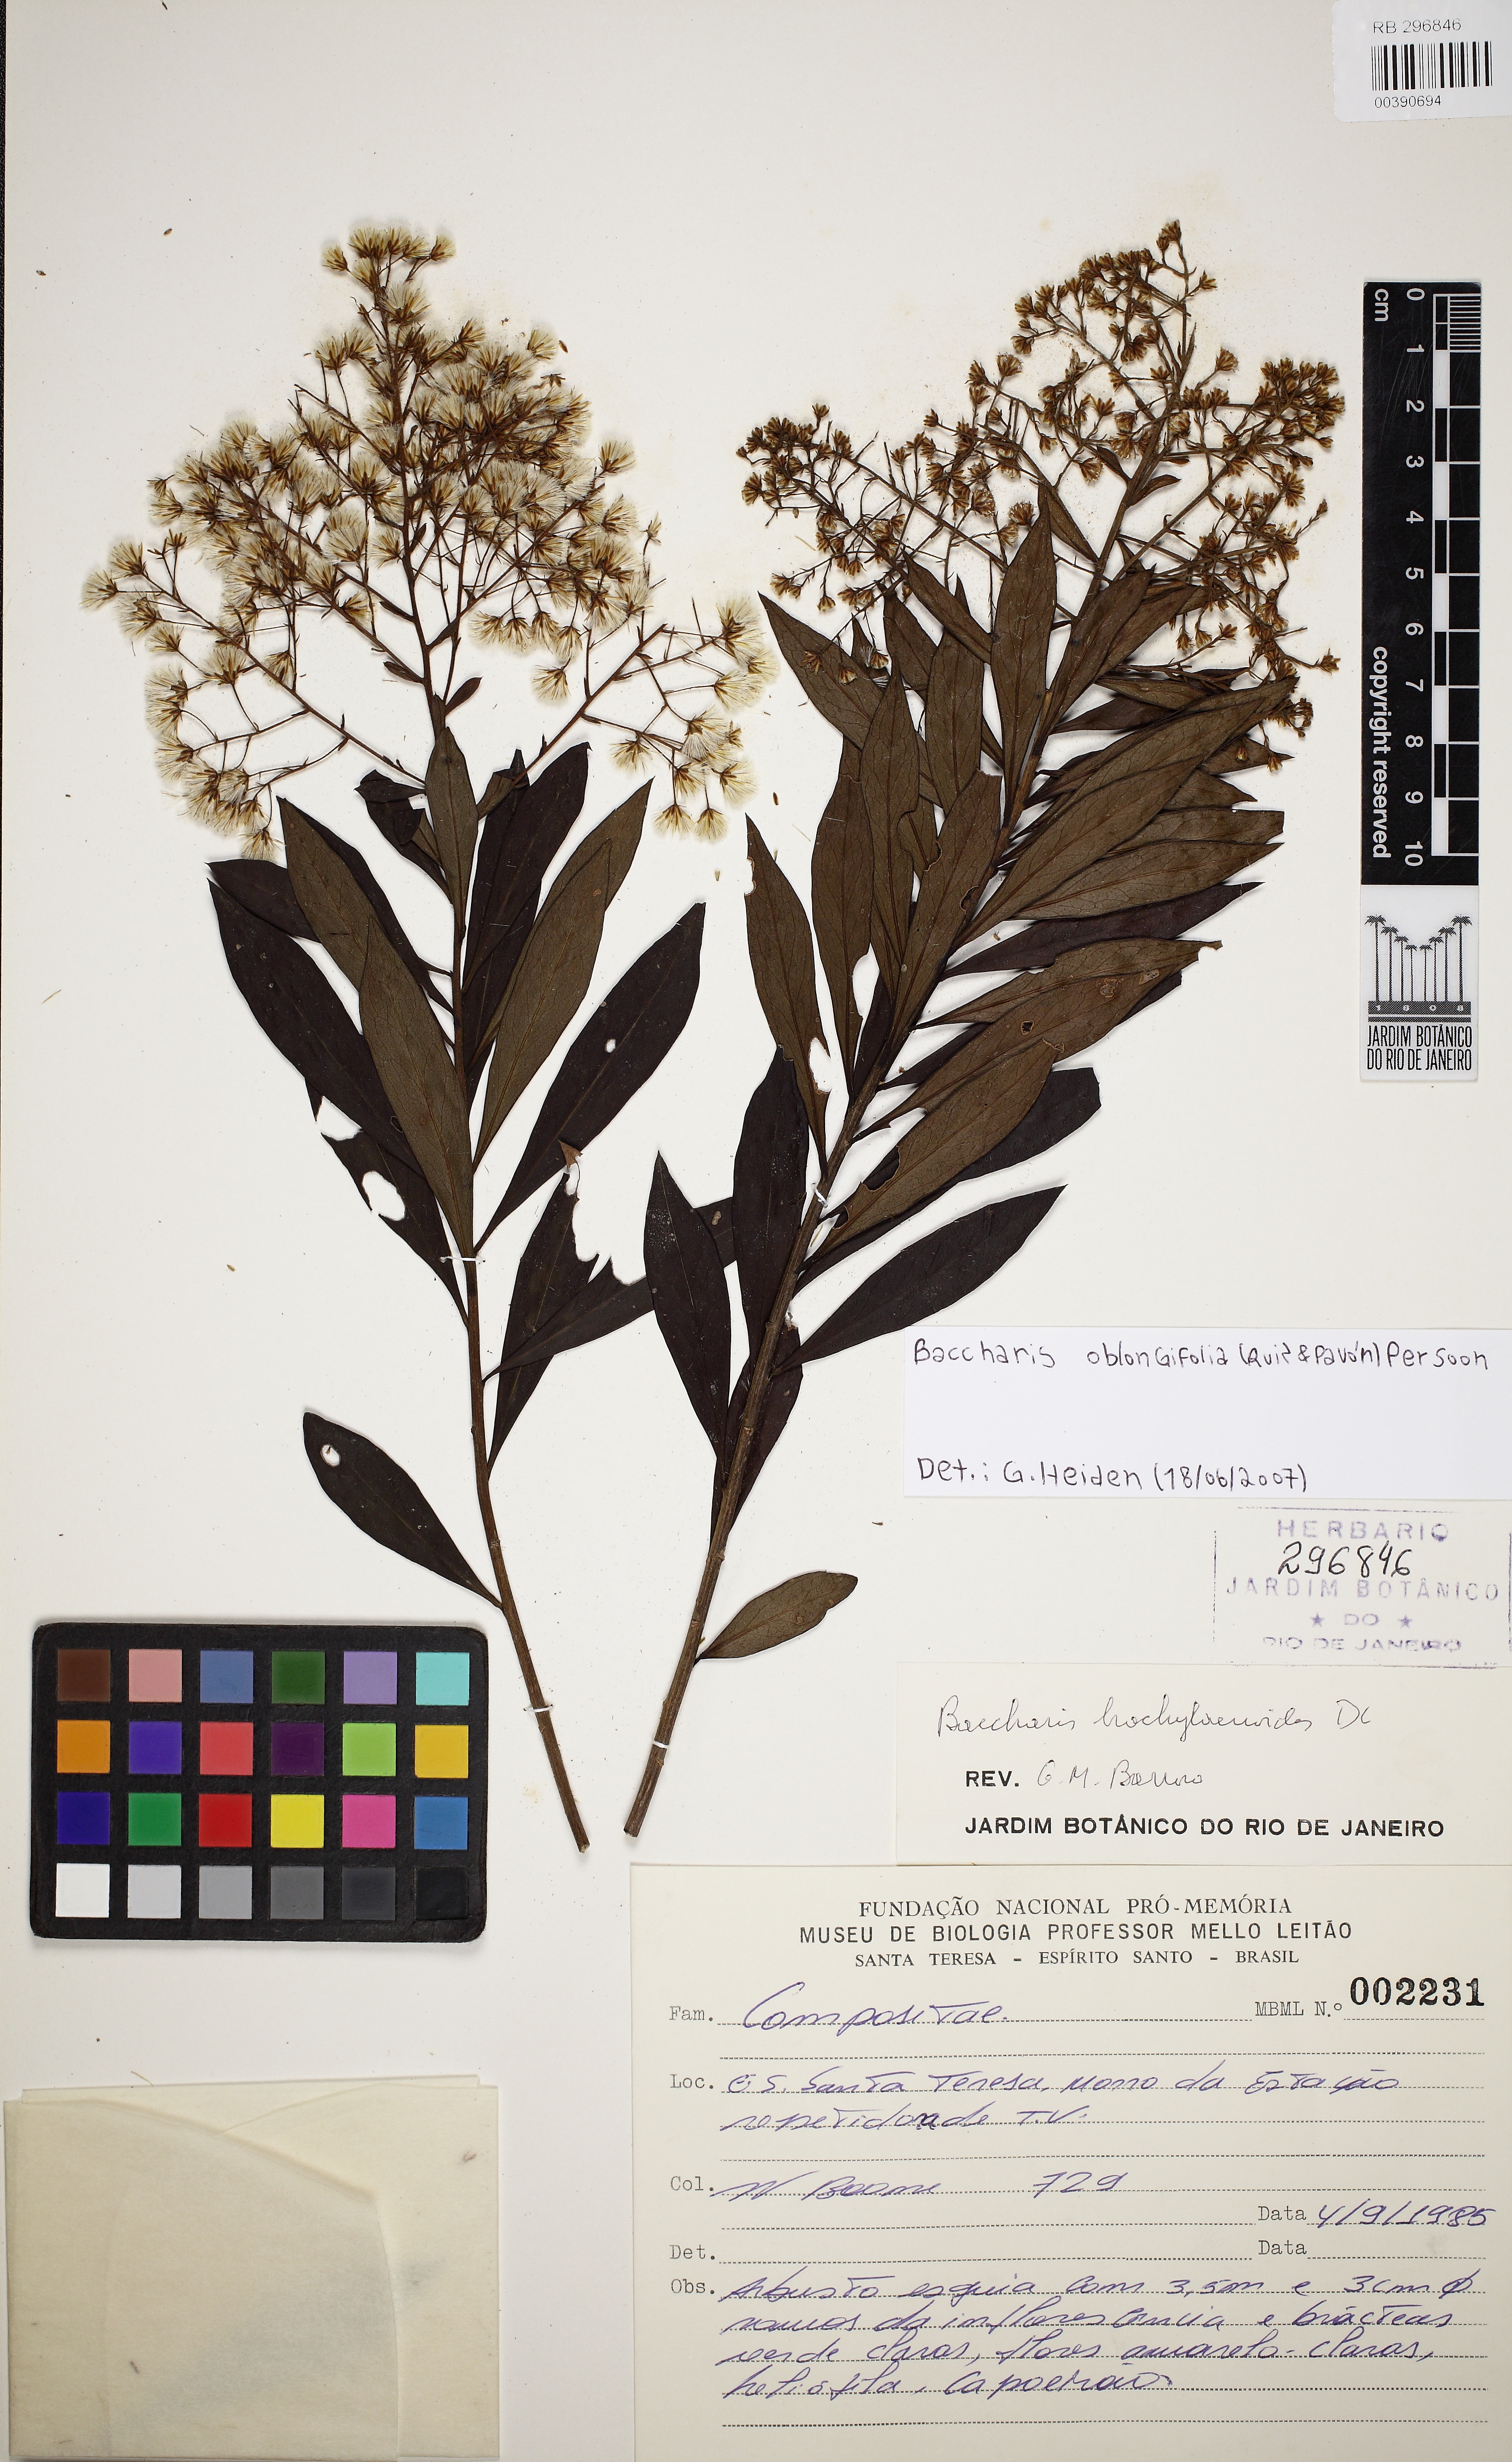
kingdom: Plantae
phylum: Tracheophyta
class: Magnoliopsida
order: Asterales
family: Asteraceae
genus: Baccharis
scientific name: Baccharis oblongifolia
